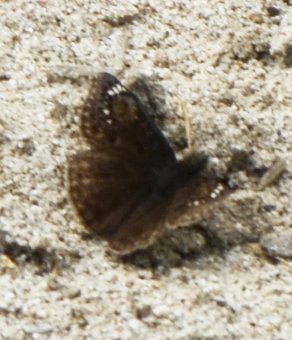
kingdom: Animalia
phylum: Arthropoda
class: Insecta
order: Lepidoptera
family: Hesperiidae
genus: Gesta
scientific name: Gesta
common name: Juvenal's Duskywing
